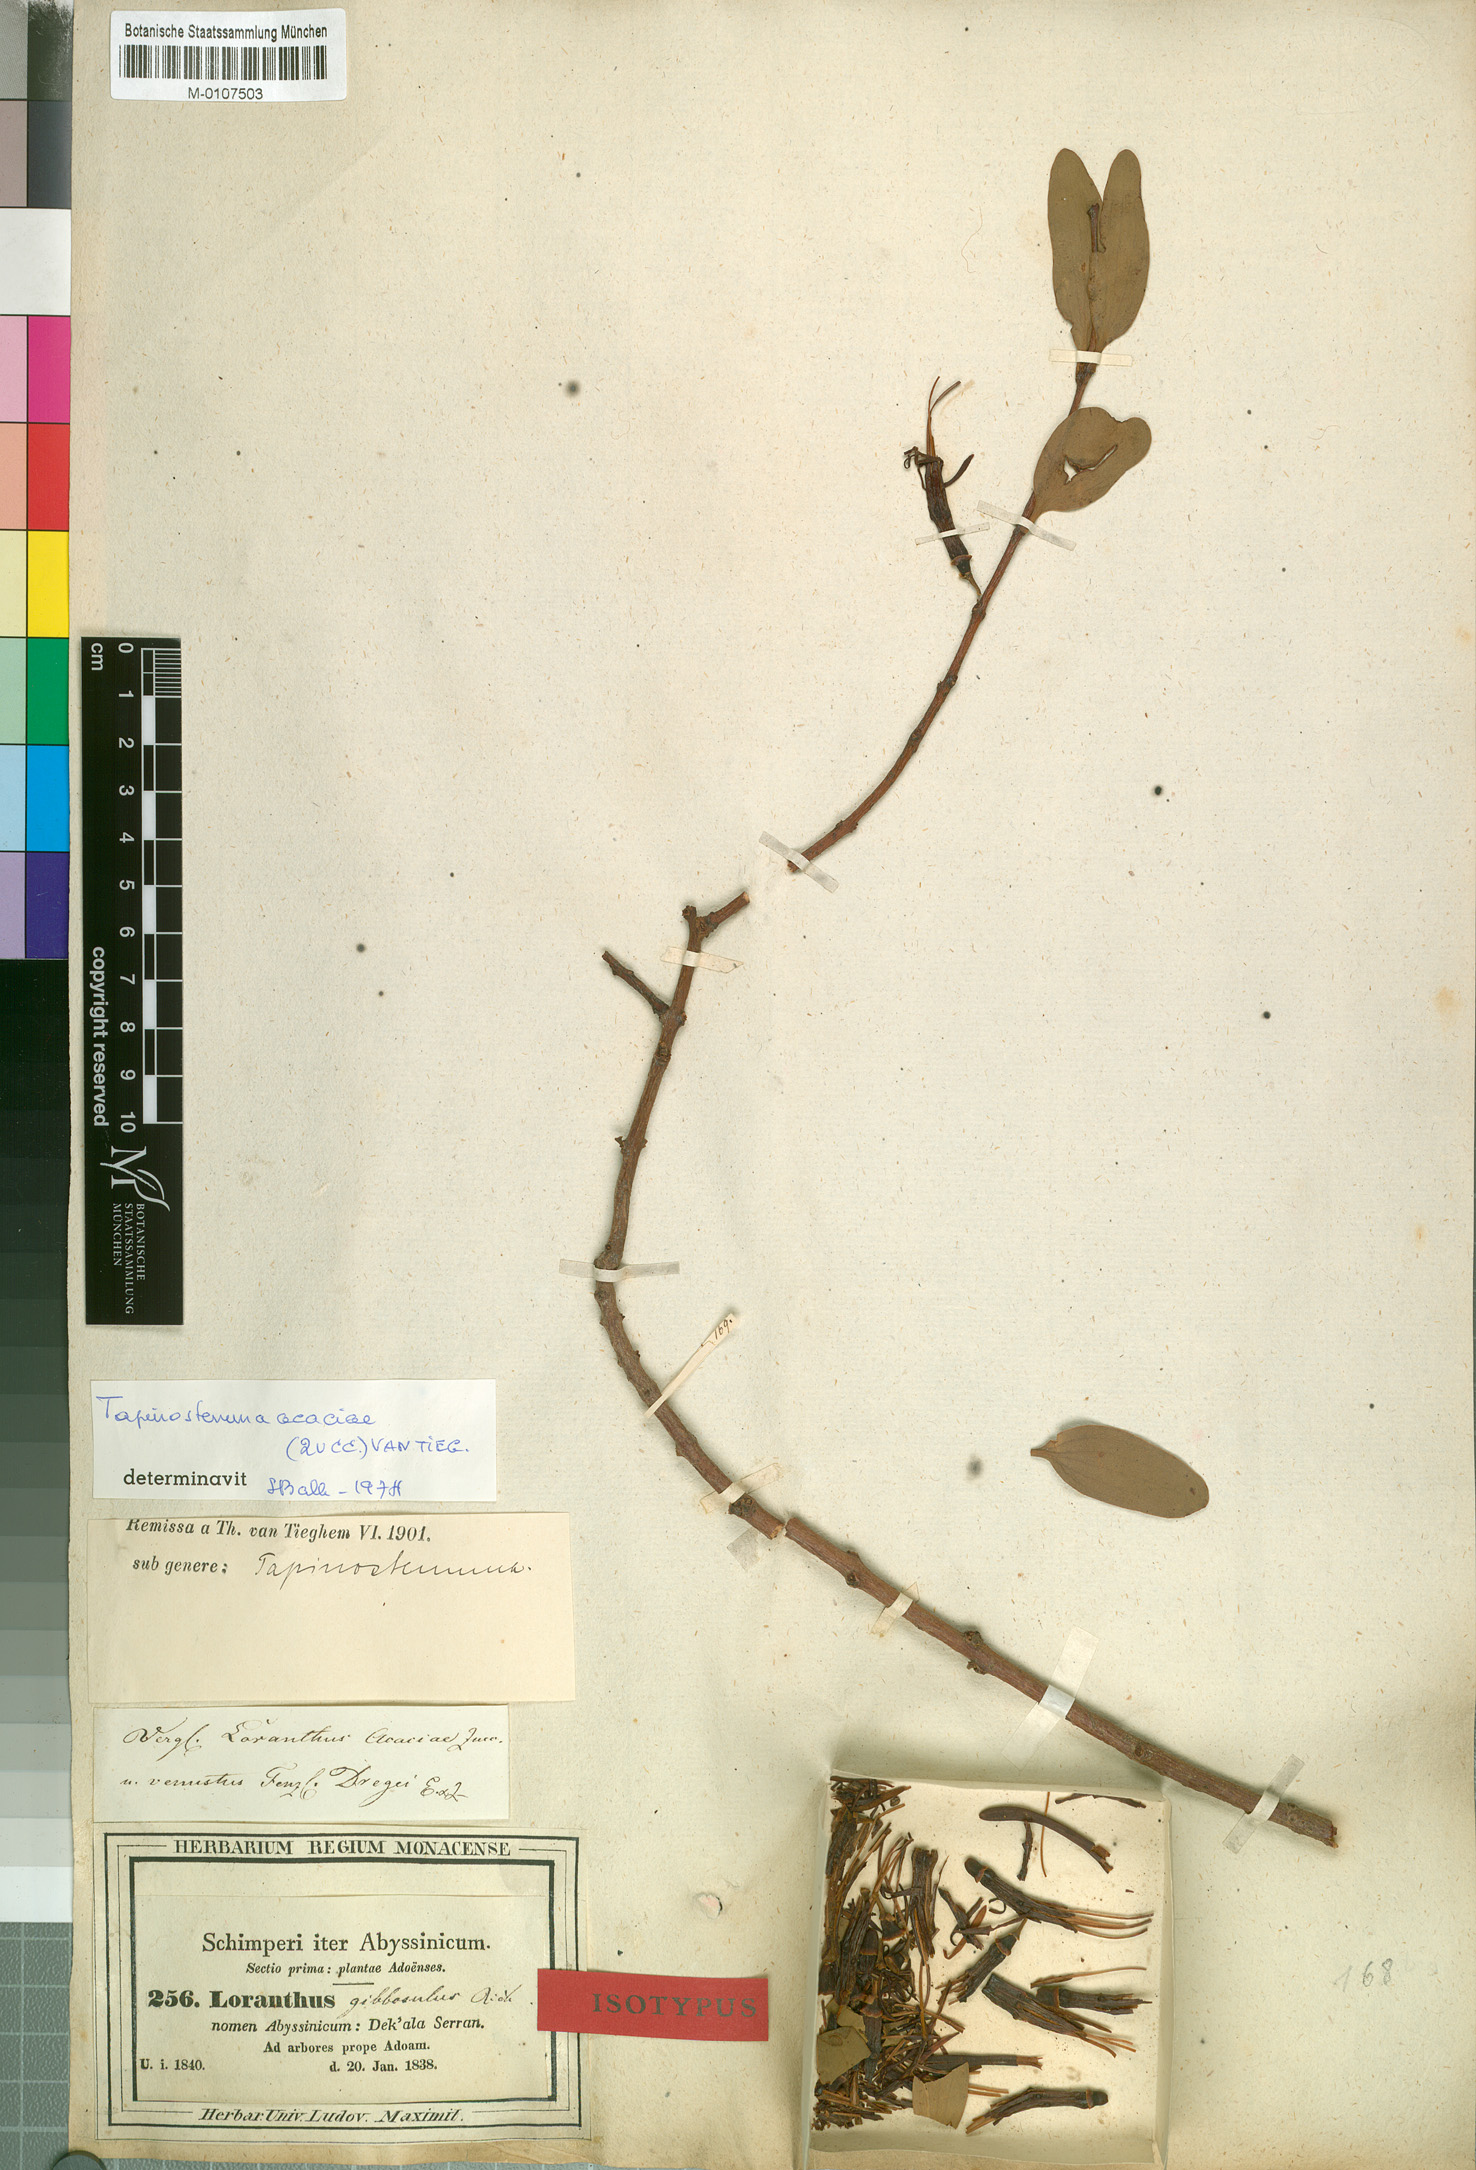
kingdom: Plantae
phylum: Tracheophyta
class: Magnoliopsida
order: Santalales
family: Loranthaceae
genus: Plicosepalus
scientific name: Plicosepalus acaciae
